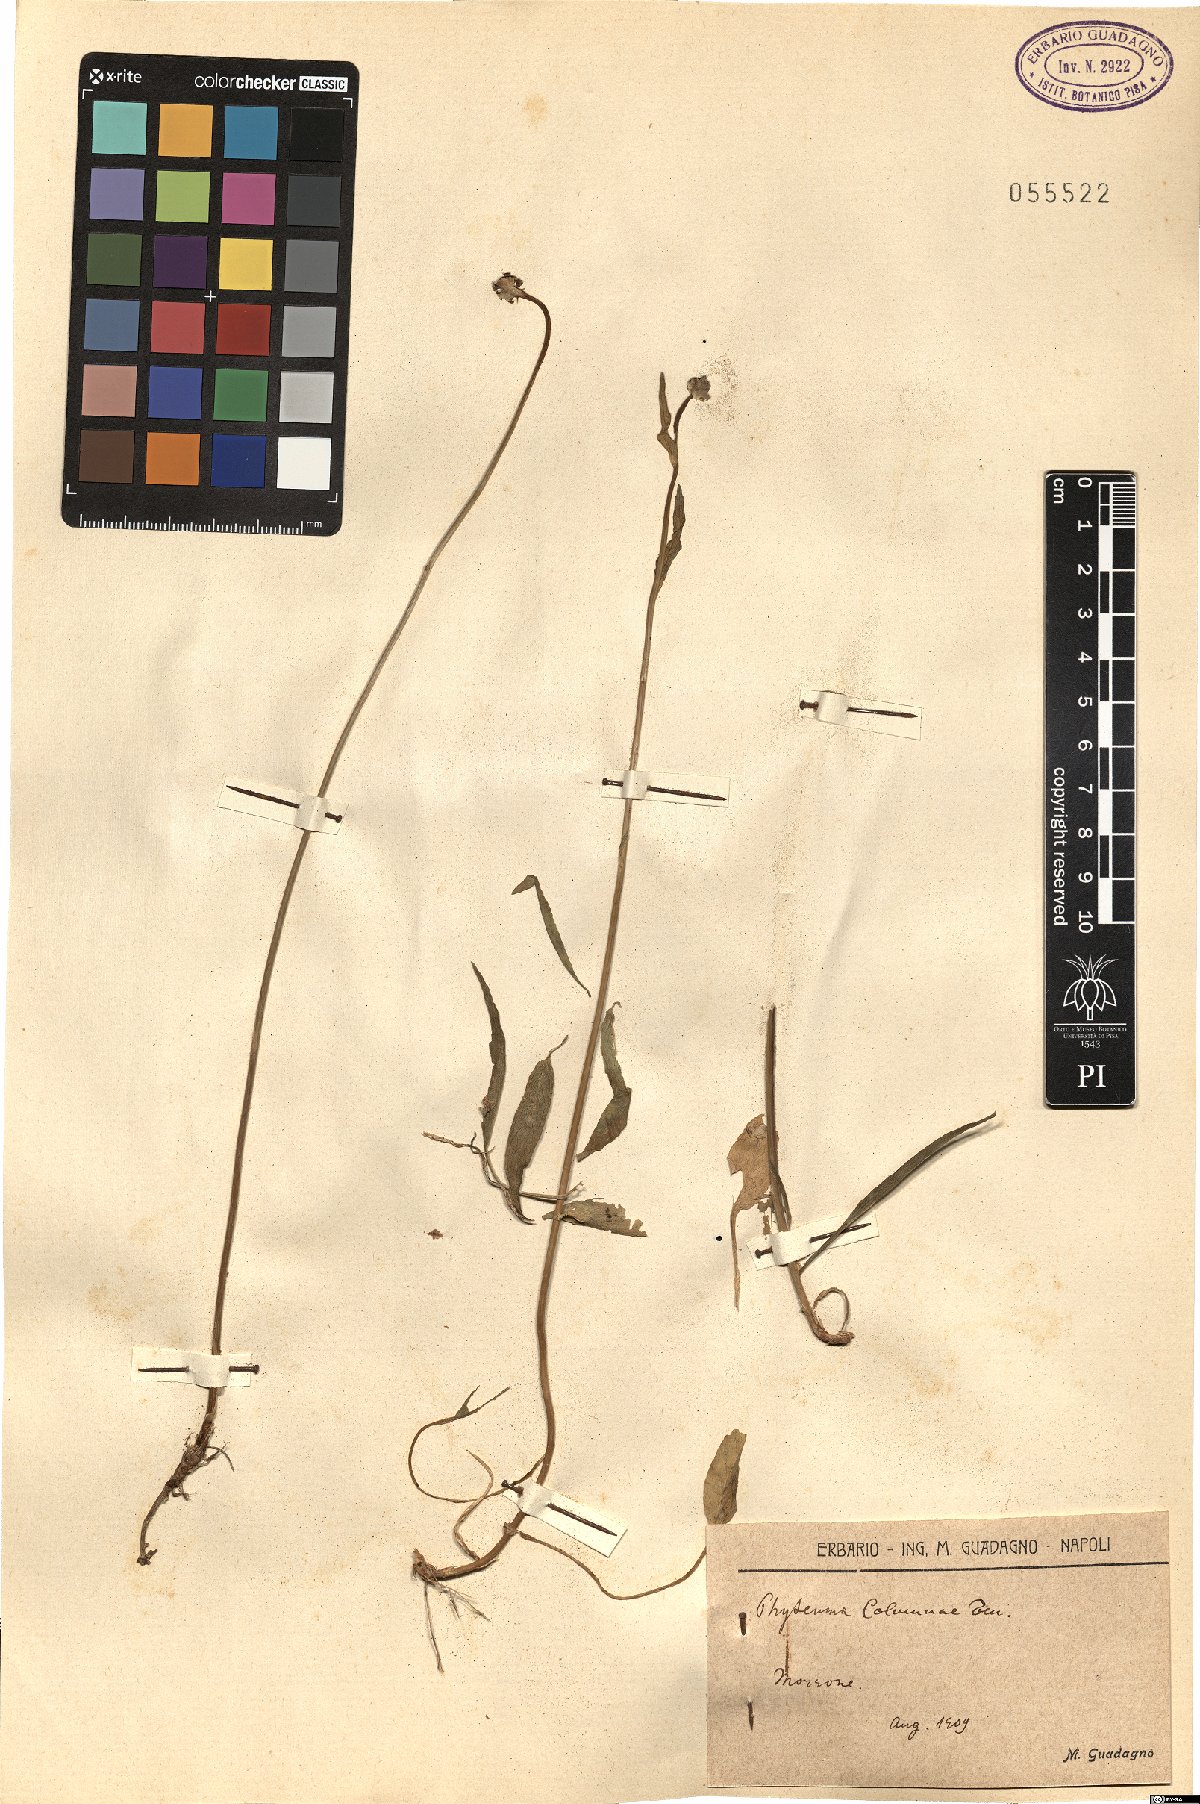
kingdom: Plantae
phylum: Tracheophyta
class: Magnoliopsida
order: Asterales
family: Campanulaceae
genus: Phyteuma
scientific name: Phyteuma scheuchzeri
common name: Oxford rampion
